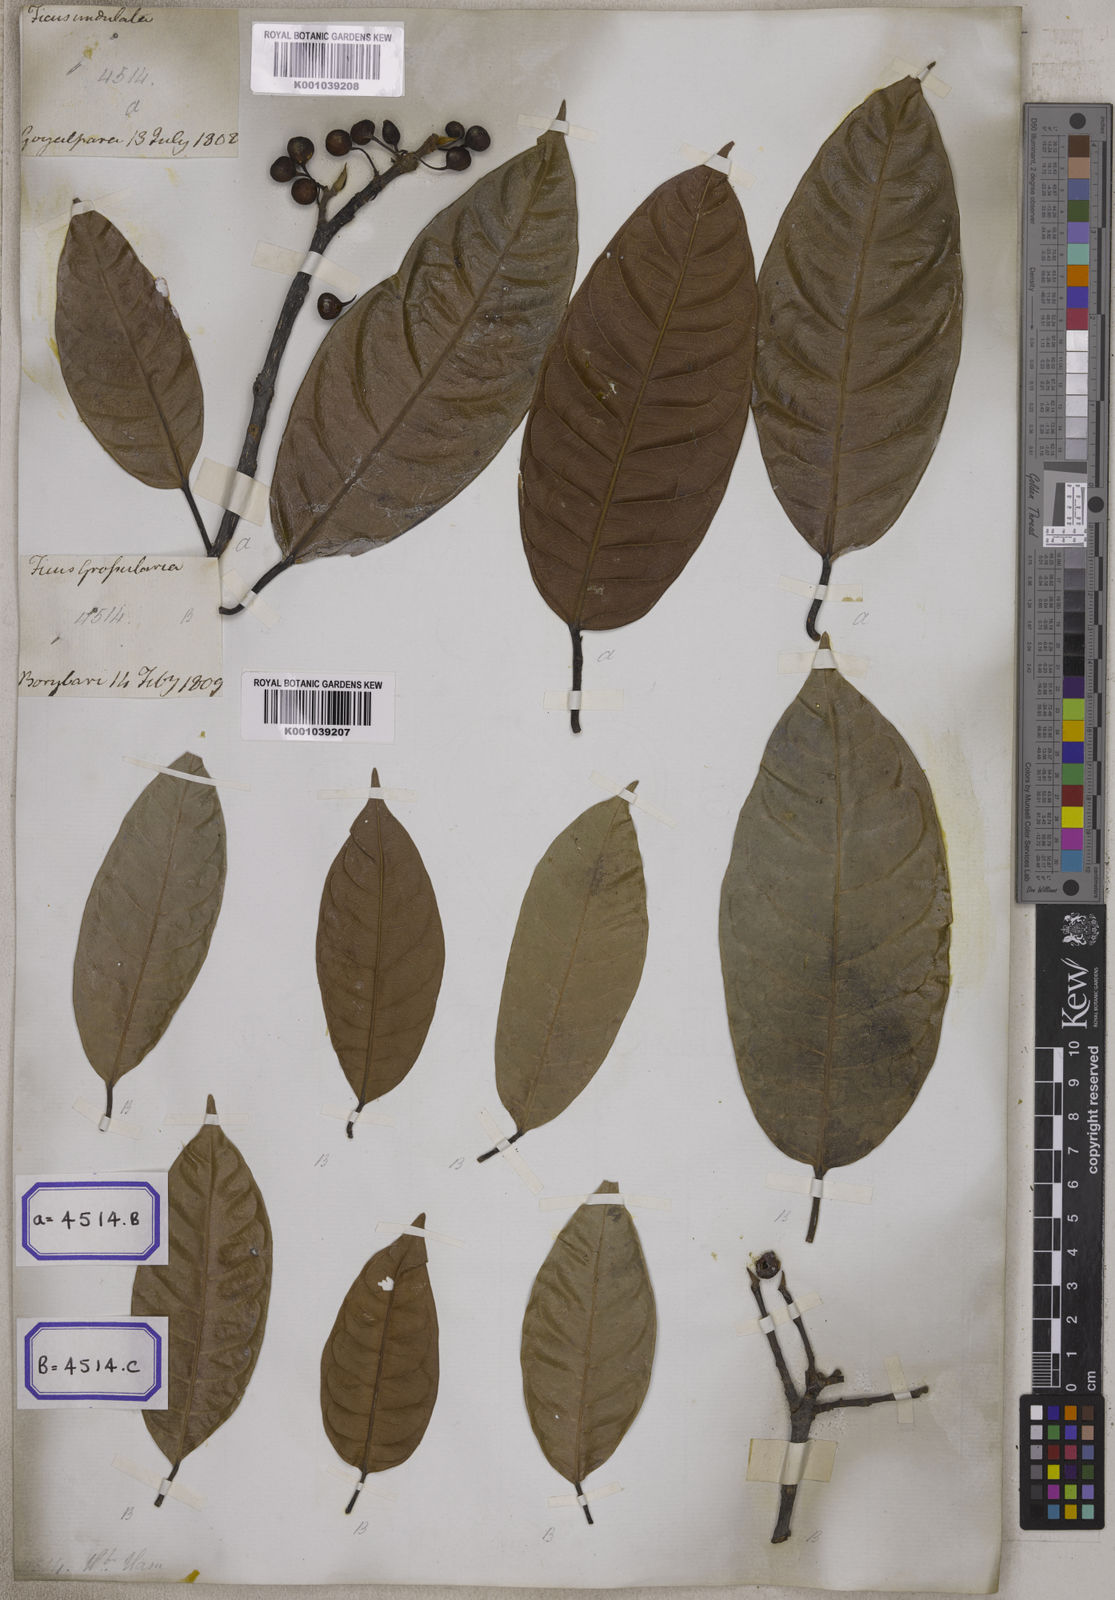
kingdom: Plantae
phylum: Tracheophyta
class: Magnoliopsida
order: Rosales
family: Moraceae
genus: Ficus
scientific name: Ficus
